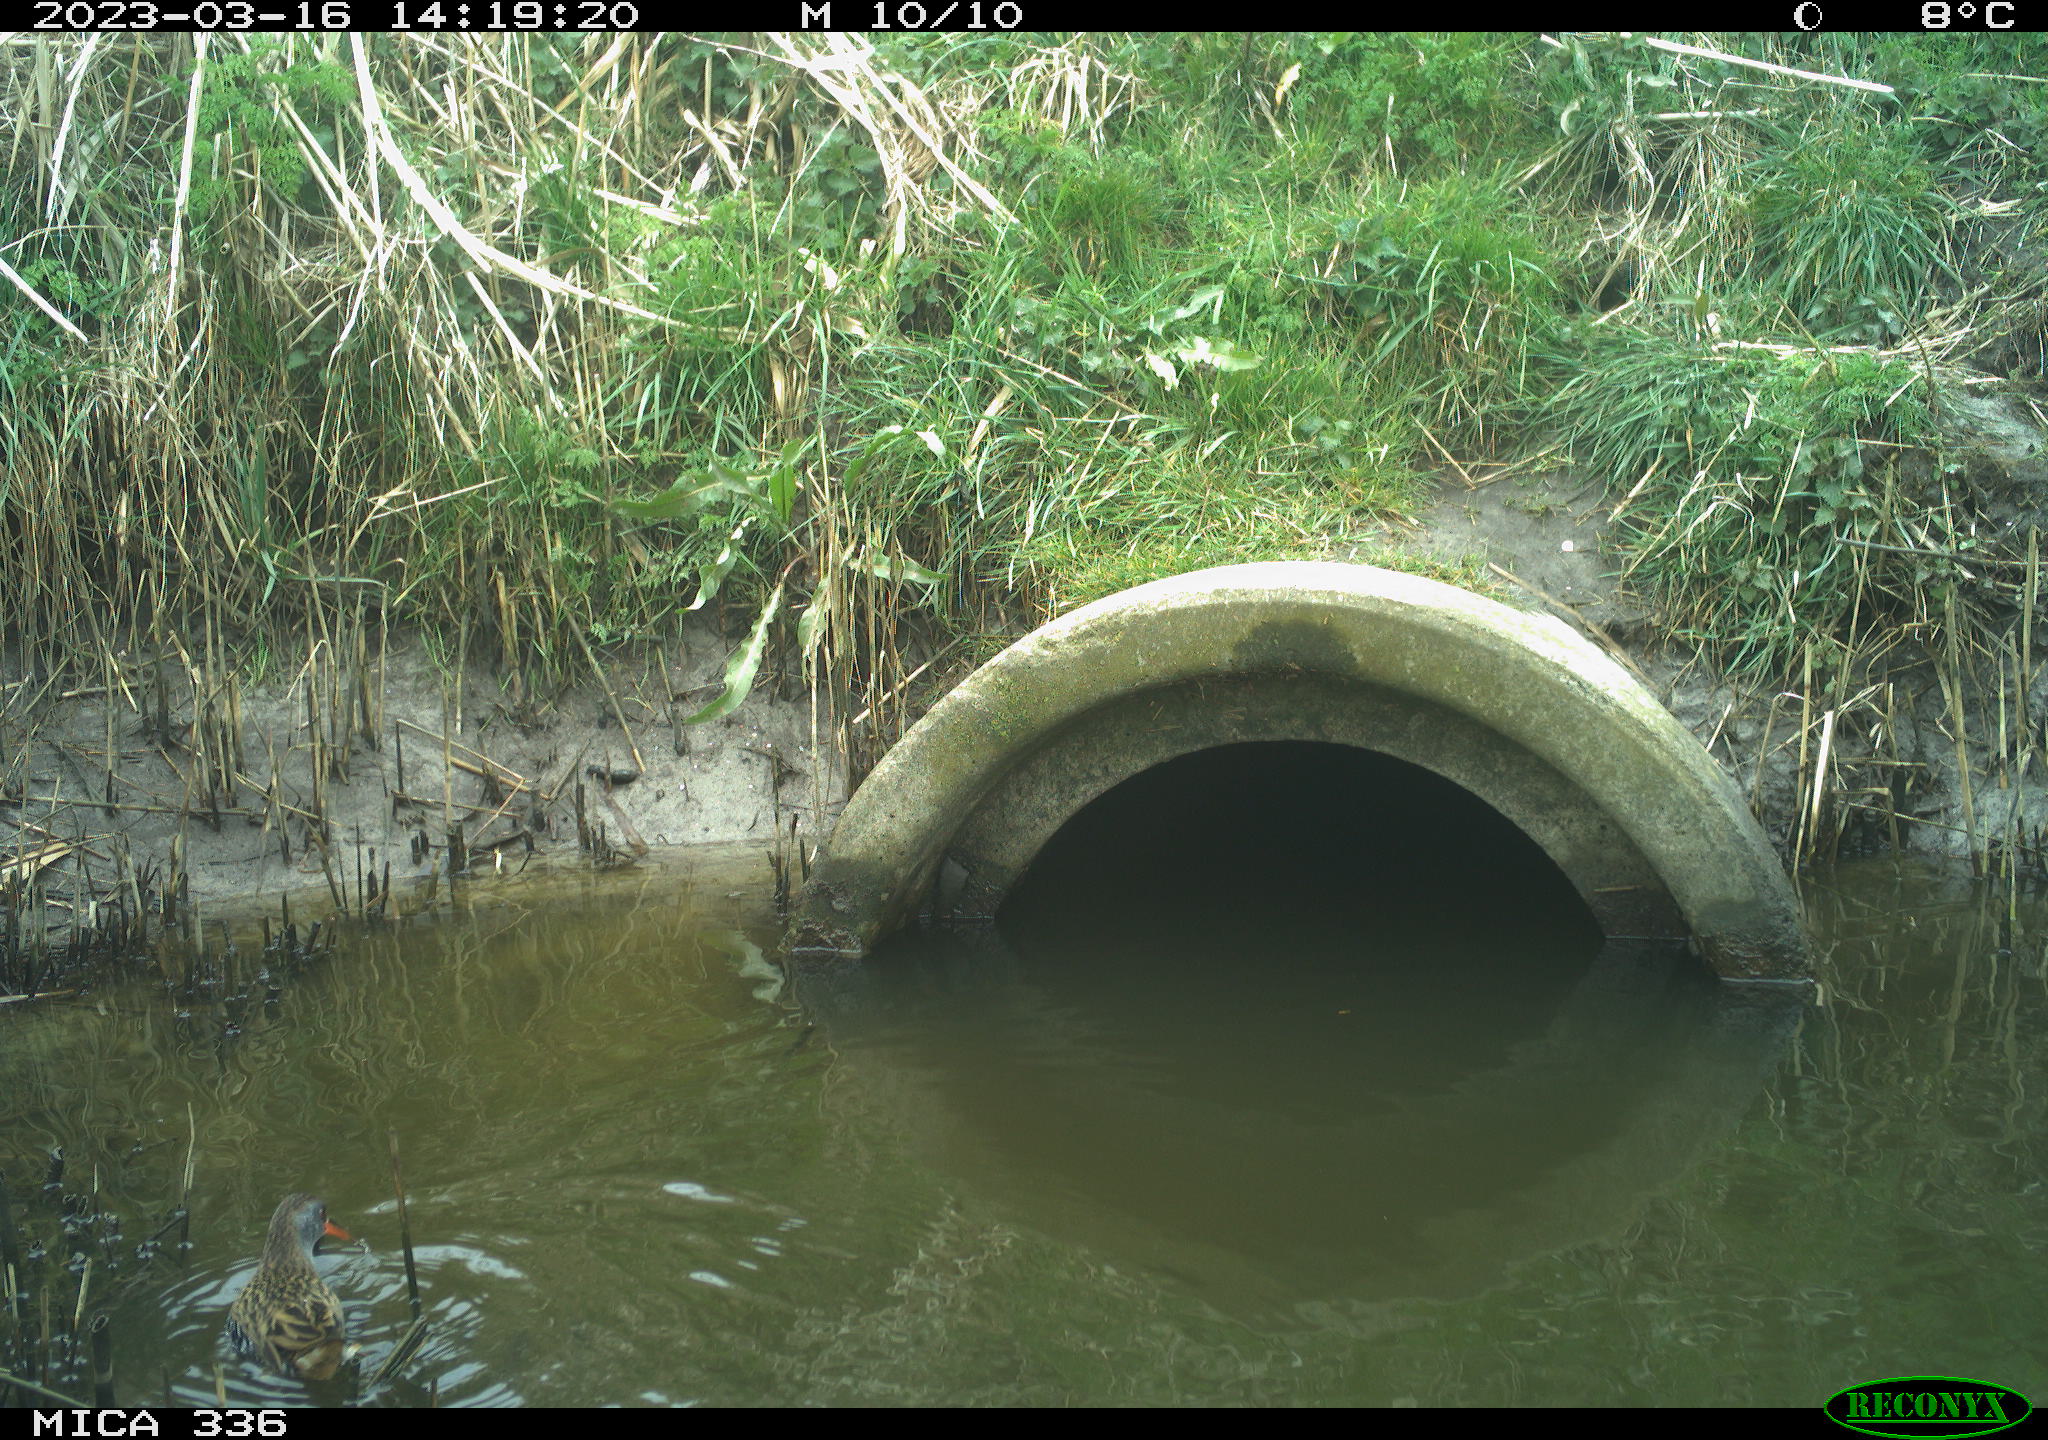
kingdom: Animalia
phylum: Chordata
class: Aves
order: Gruiformes
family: Rallidae
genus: Rallus
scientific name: Rallus aquaticus
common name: Water rail
